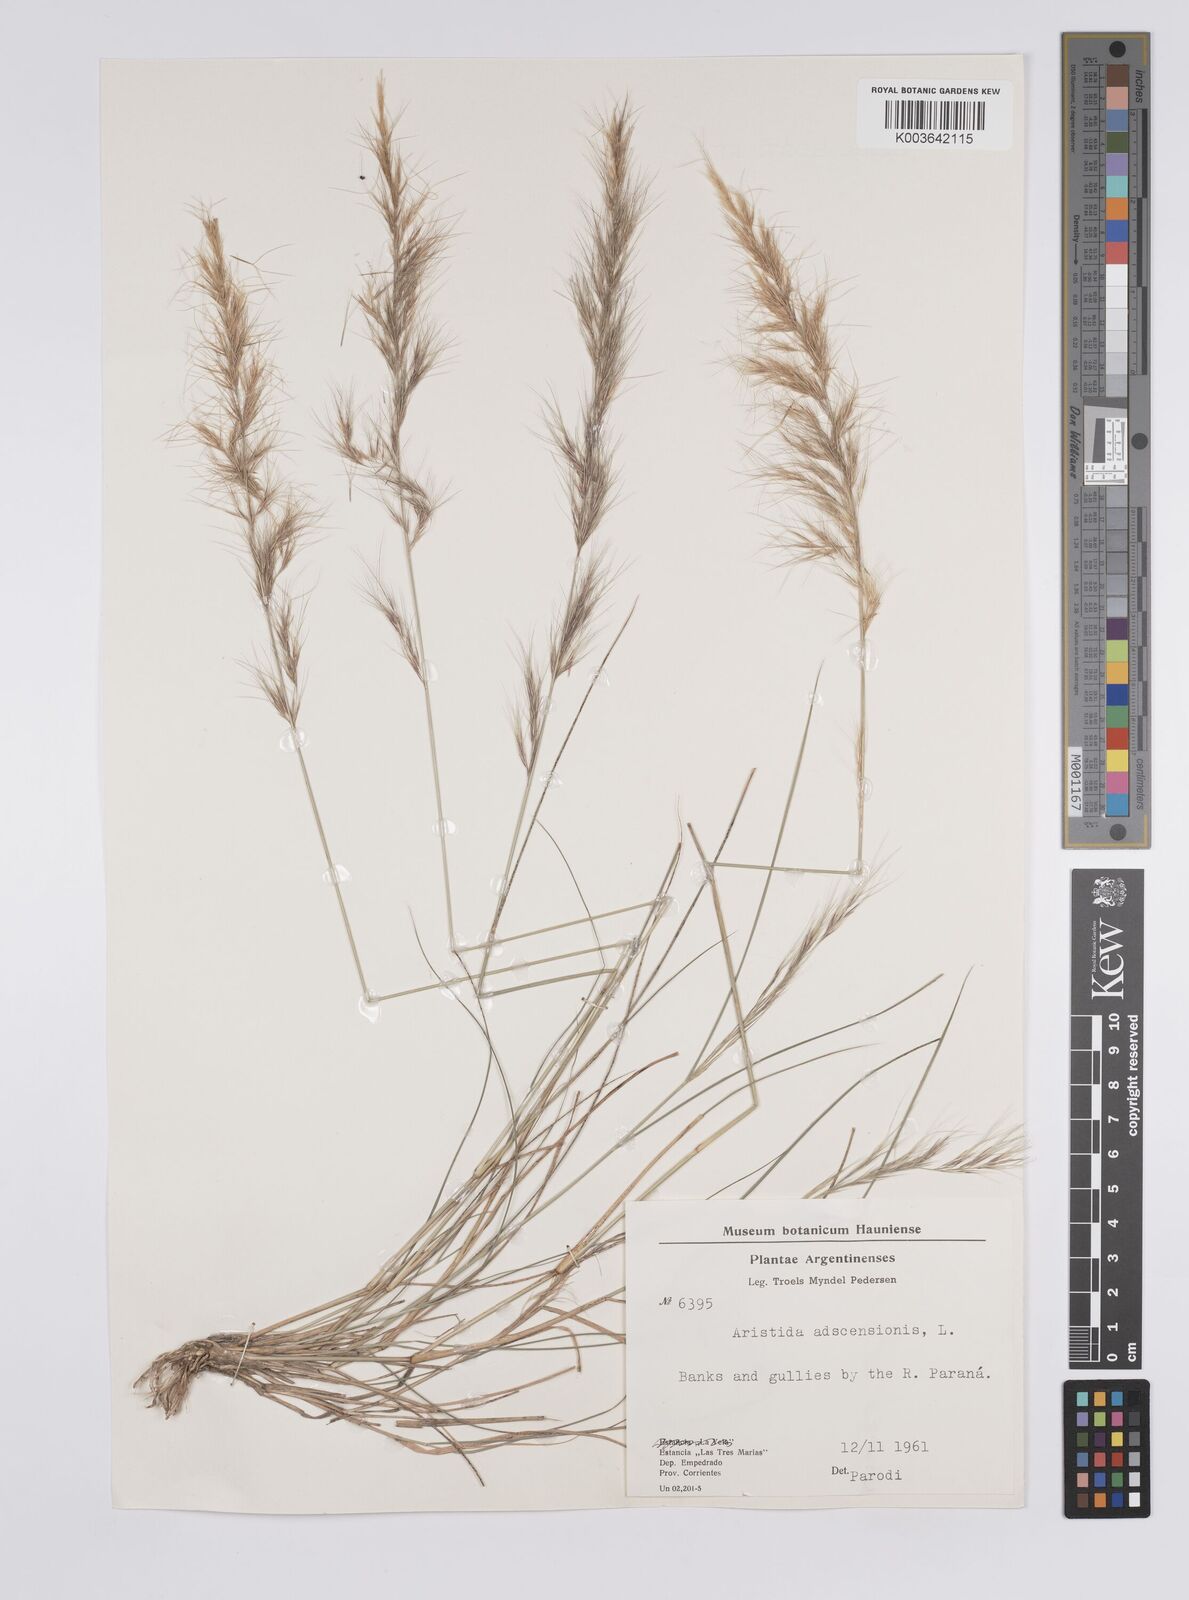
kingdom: Plantae
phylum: Tracheophyta
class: Liliopsida
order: Poales
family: Poaceae
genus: Aristida
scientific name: Aristida adscensionis
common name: Sixweeks threeawn
